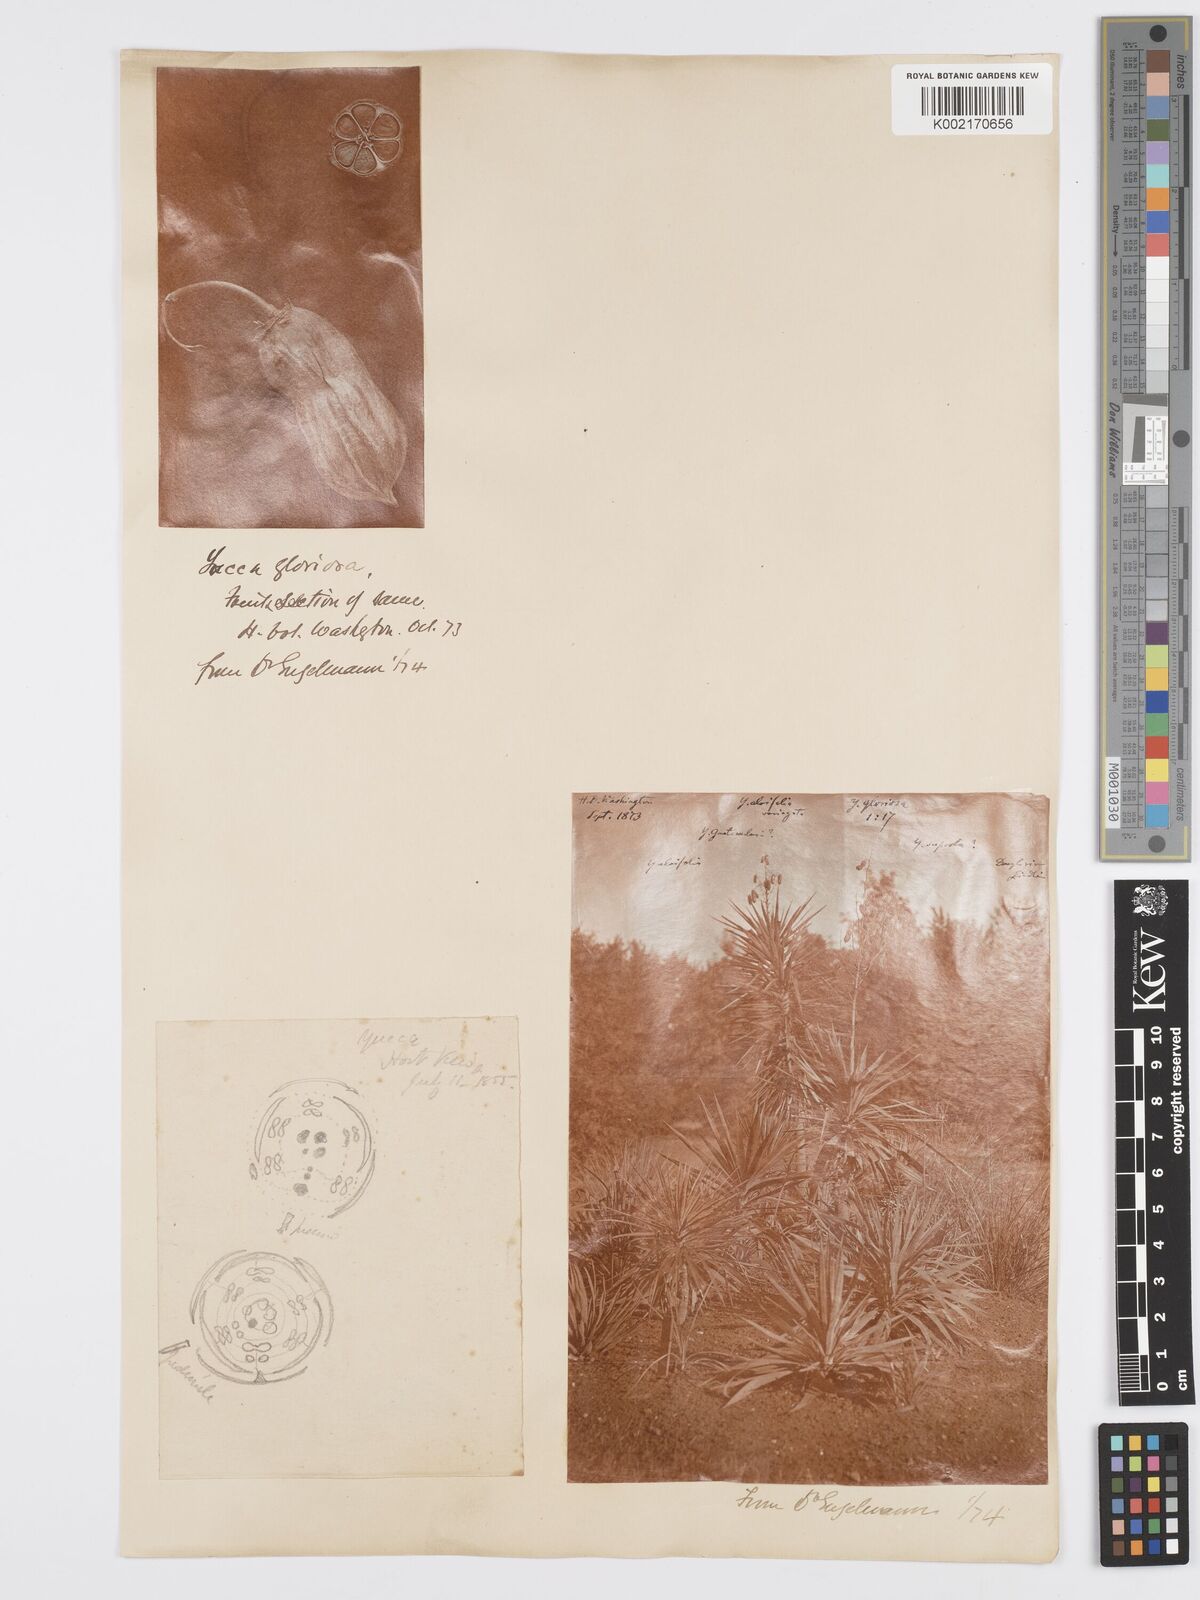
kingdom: Plantae
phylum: Tracheophyta
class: Liliopsida
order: Asparagales
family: Asparagaceae
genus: Yucca
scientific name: Yucca gloriosa
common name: Spanish-dagger
